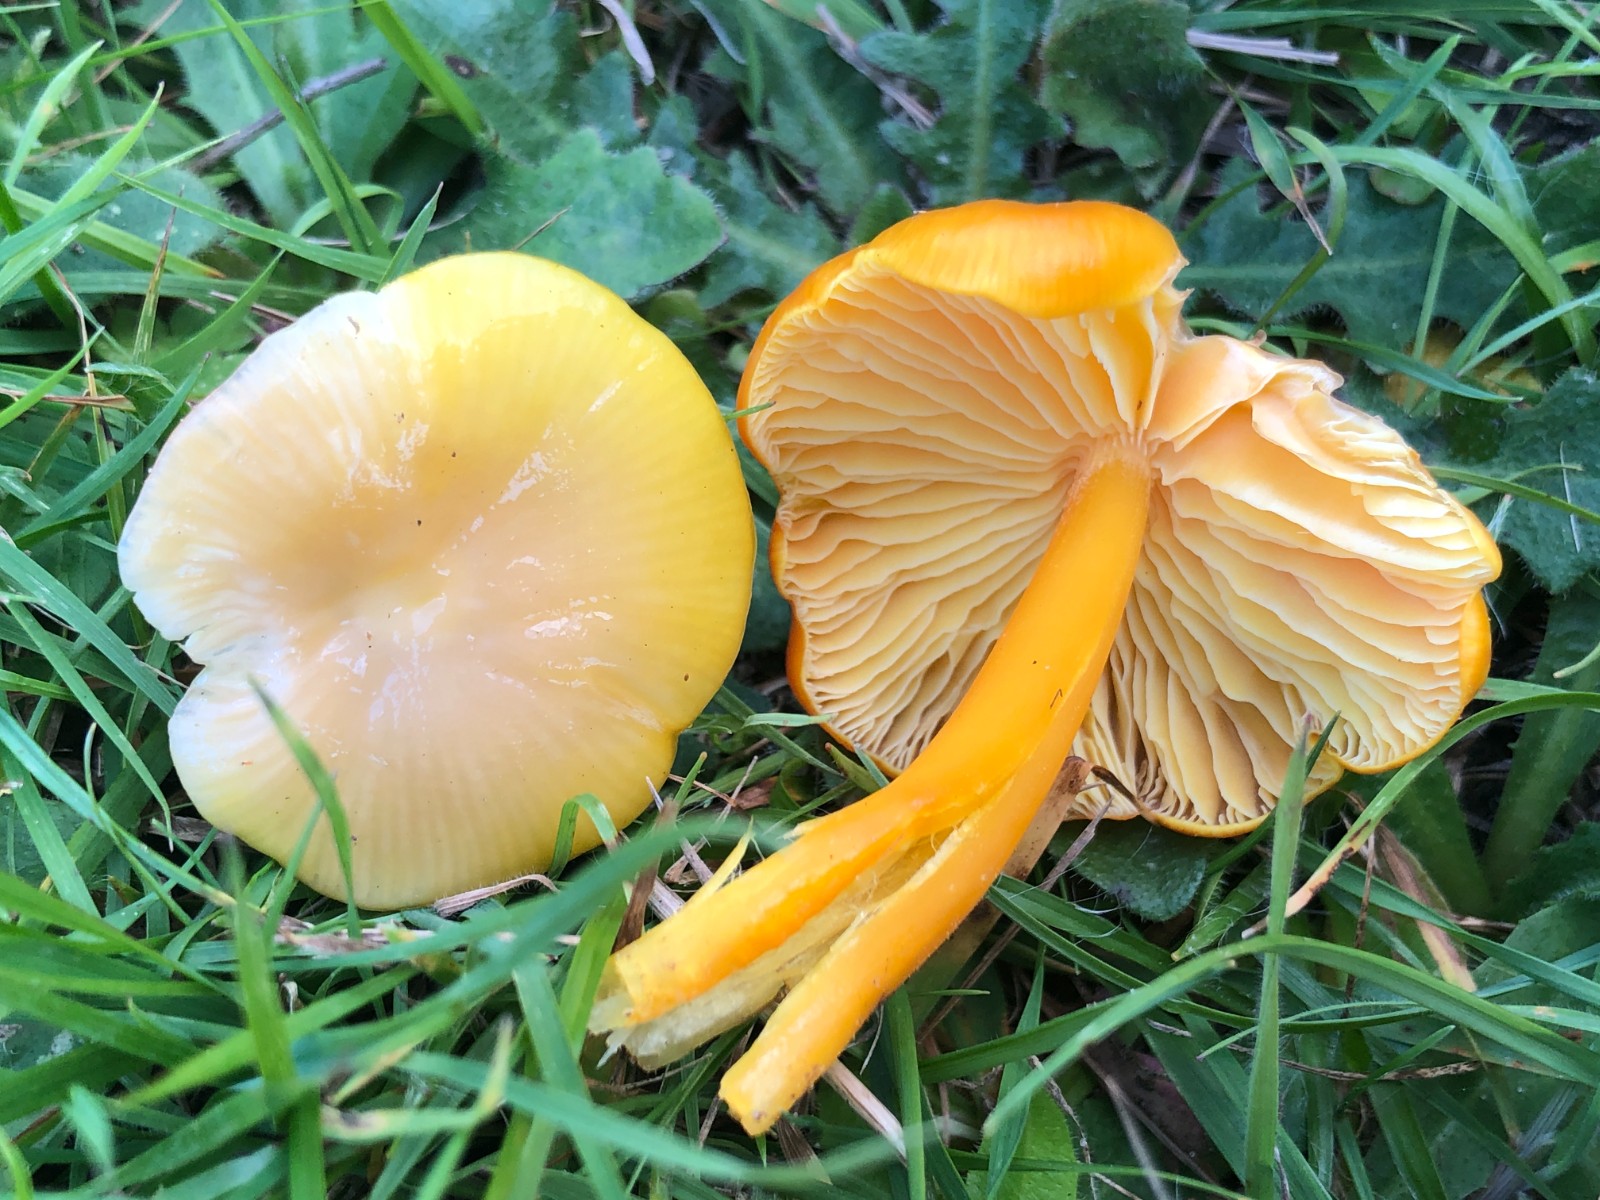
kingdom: Fungi
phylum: Basidiomycota
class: Agaricomycetes
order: Agaricales
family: Hygrophoraceae
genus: Hygrocybe
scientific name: Hygrocybe chlorophana
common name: gul vokshat
